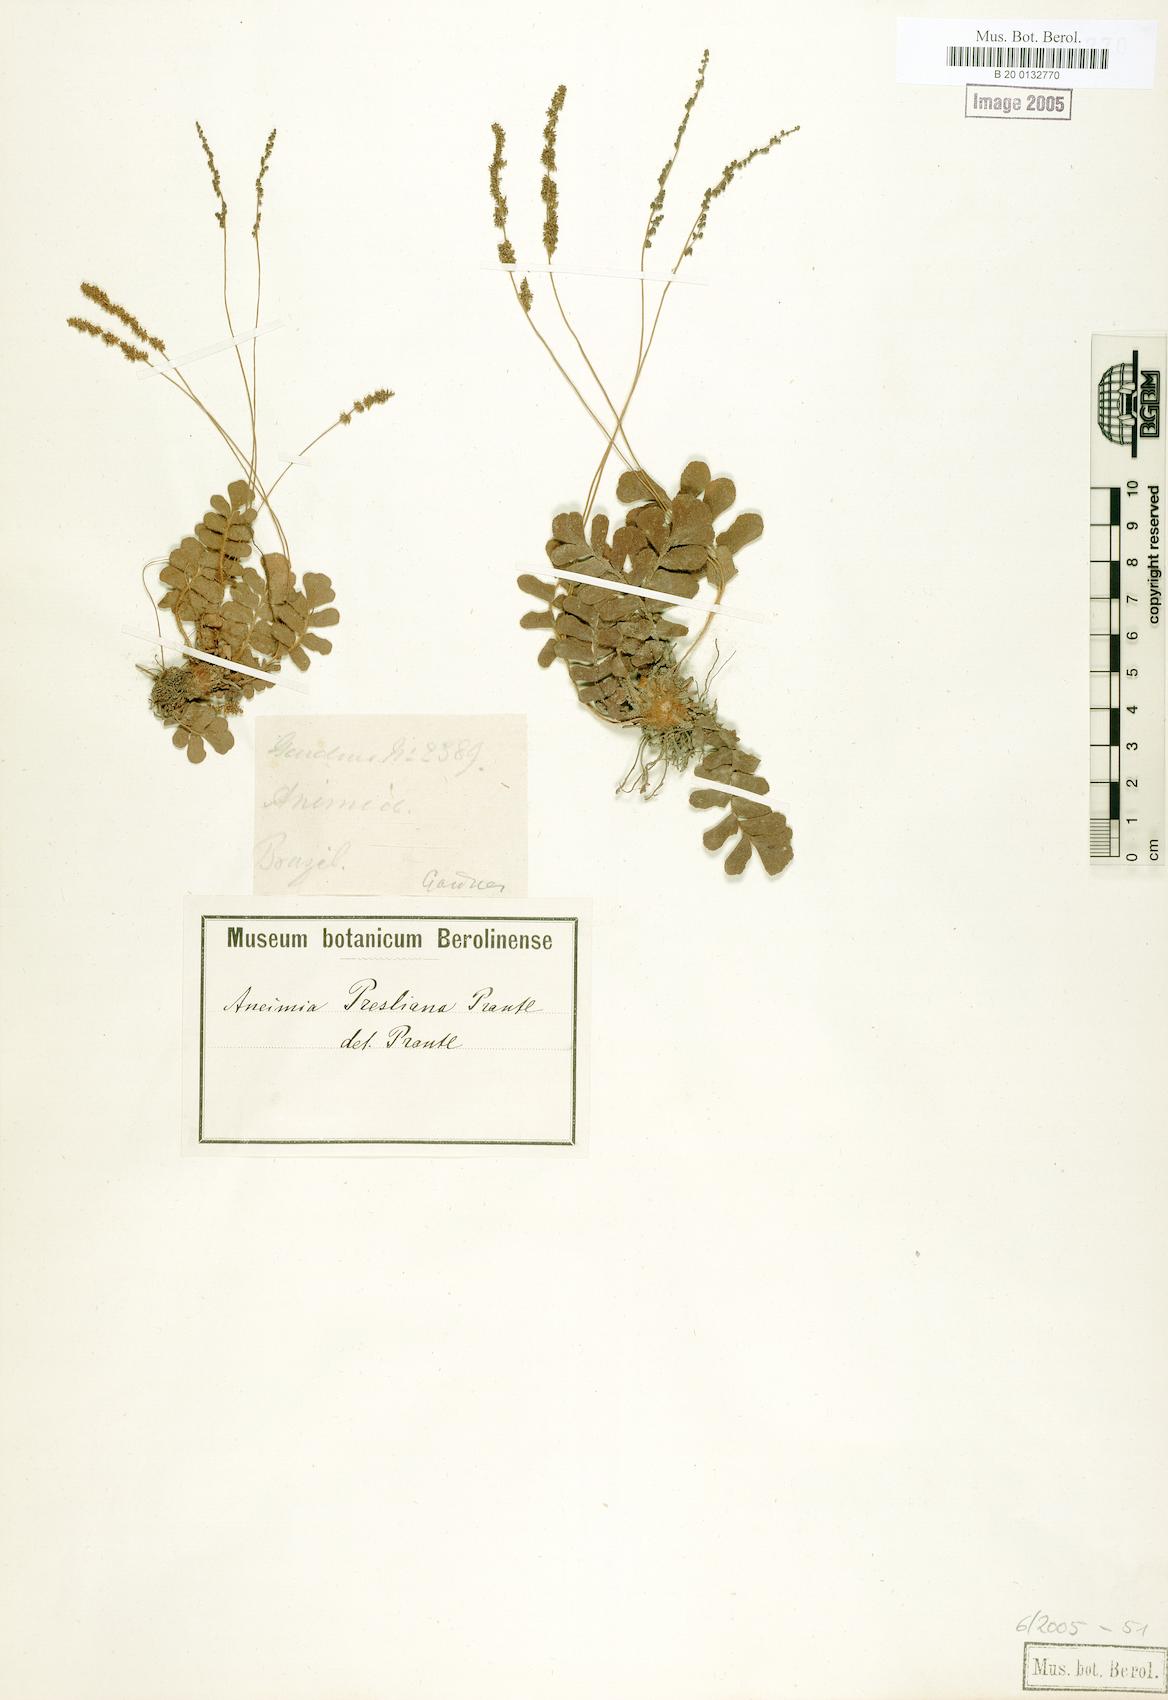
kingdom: Plantae
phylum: Tracheophyta
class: Polypodiopsida
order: Schizaeales
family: Anemiaceae
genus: Anemia
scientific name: Anemia presliana
